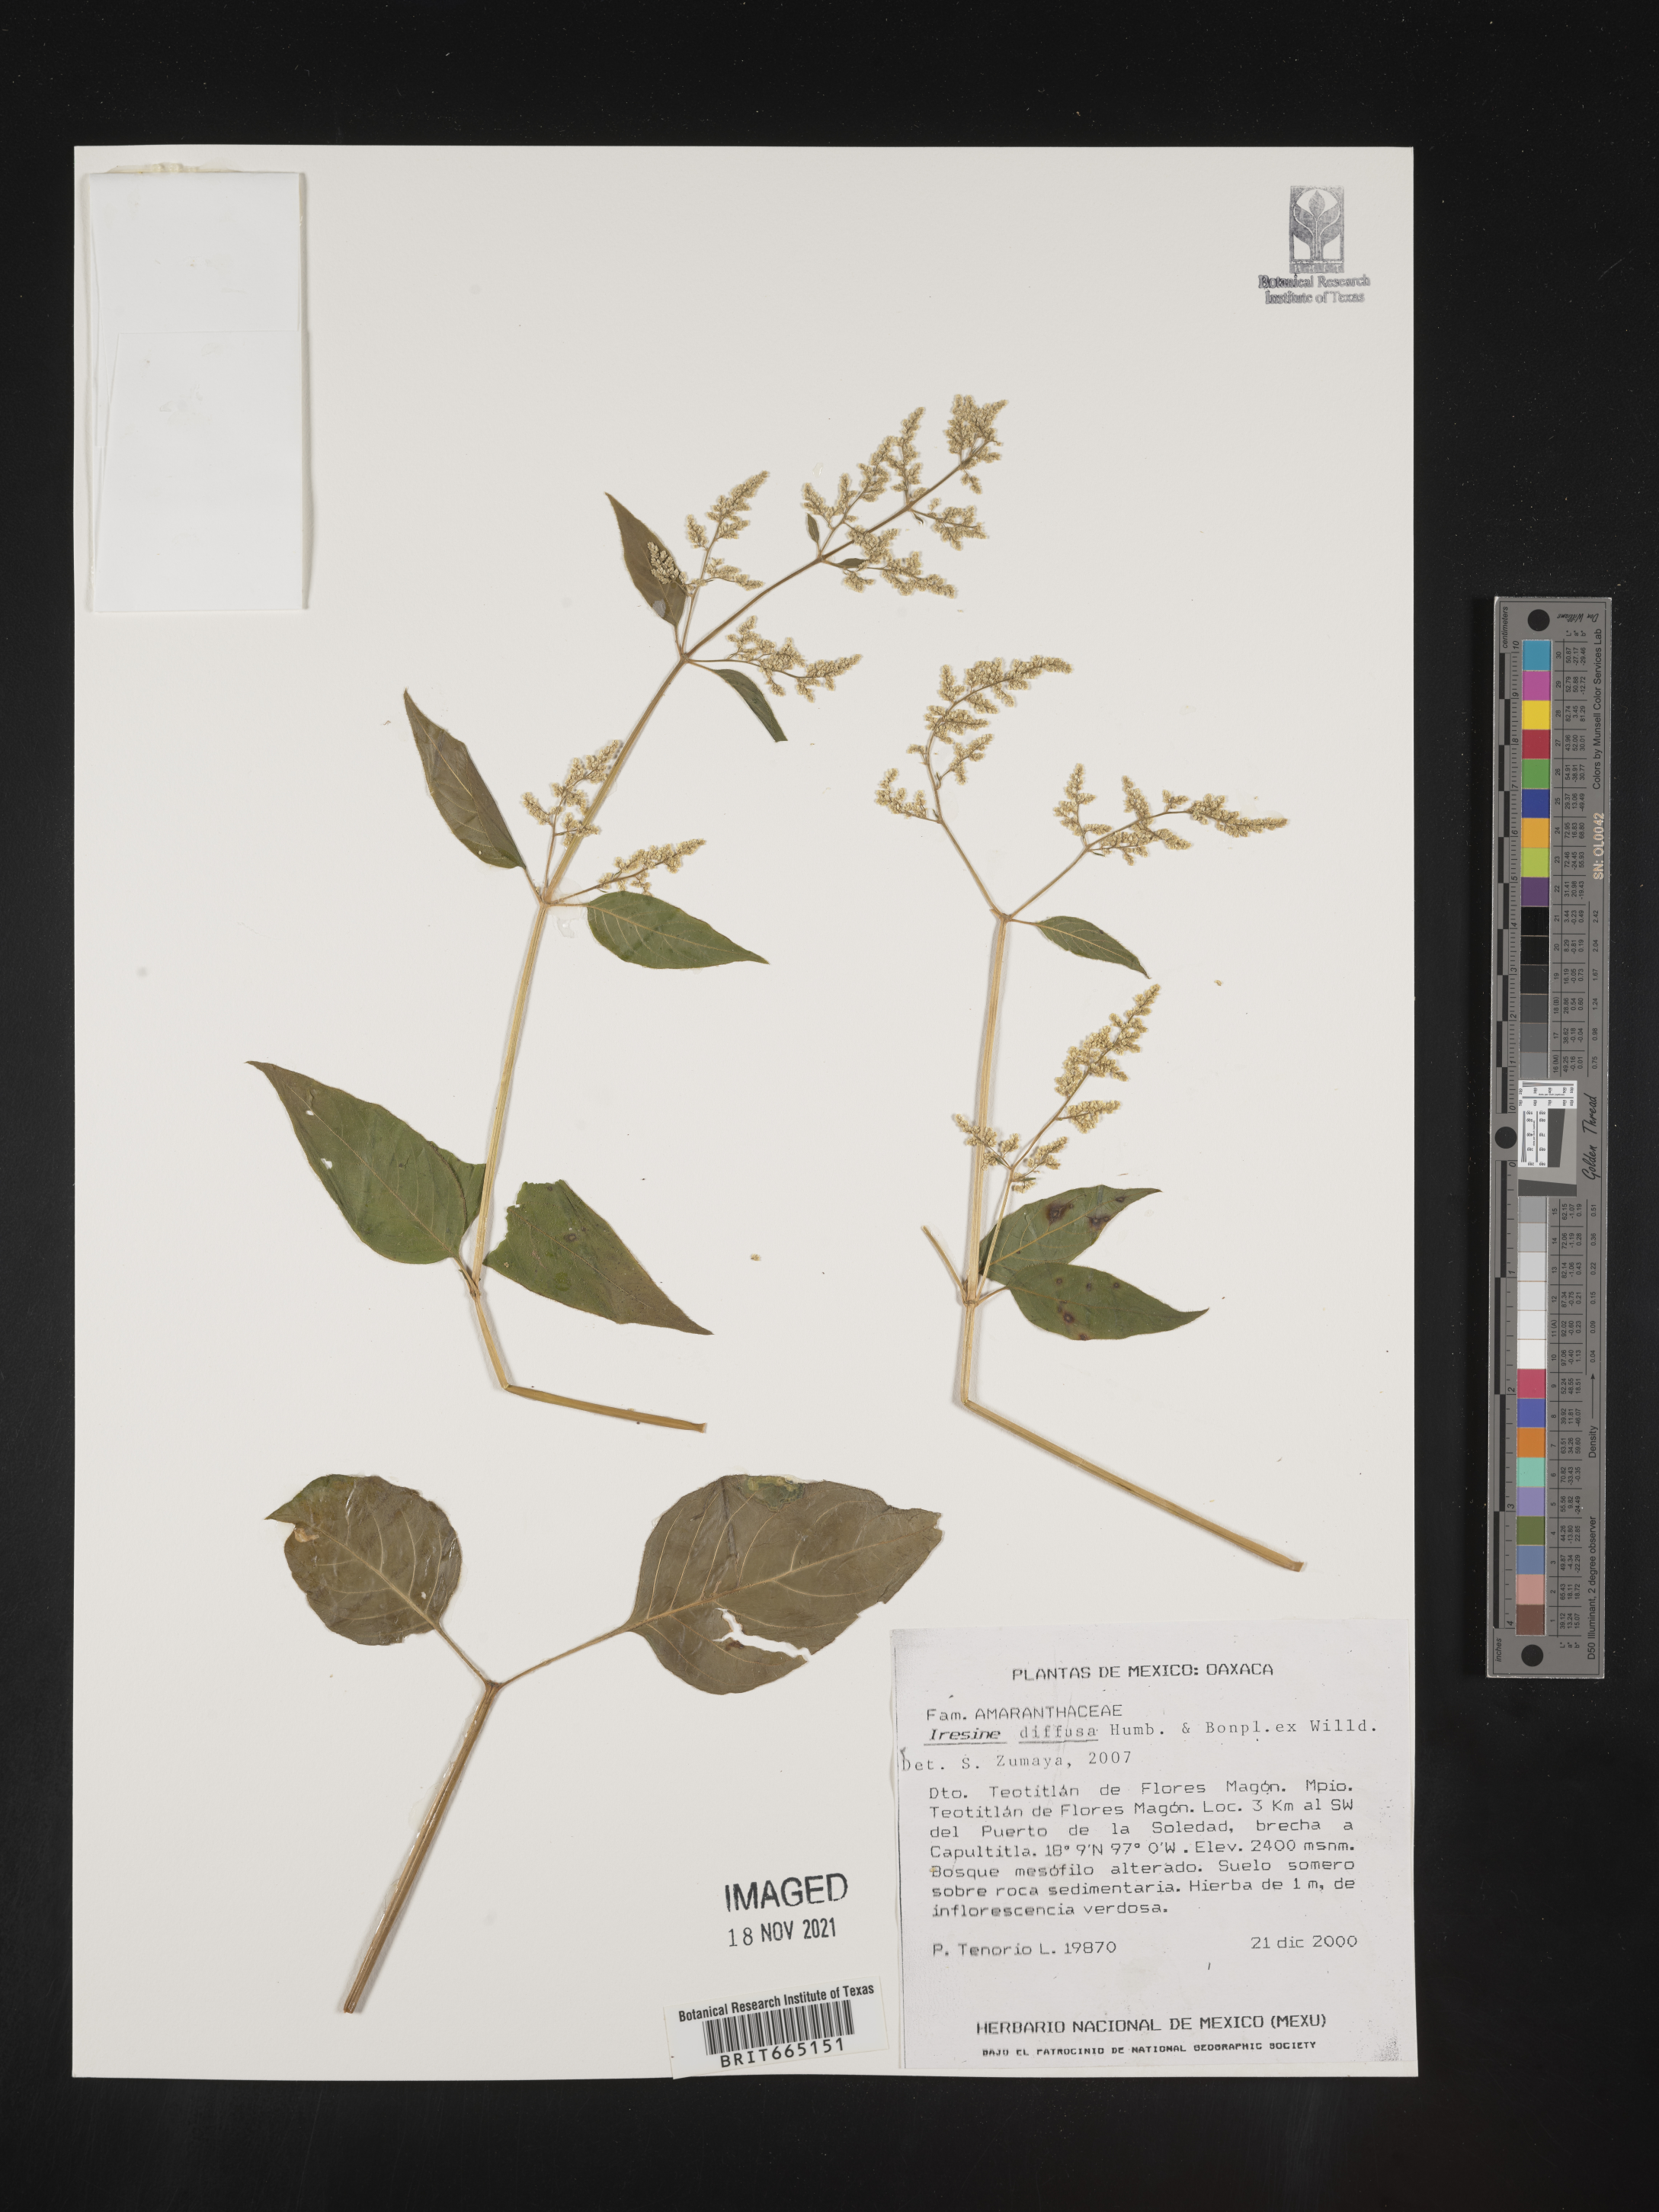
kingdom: Plantae
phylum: Tracheophyta
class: Magnoliopsida
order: Caryophyllales
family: Amaranthaceae
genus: Iresine
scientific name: Iresine
